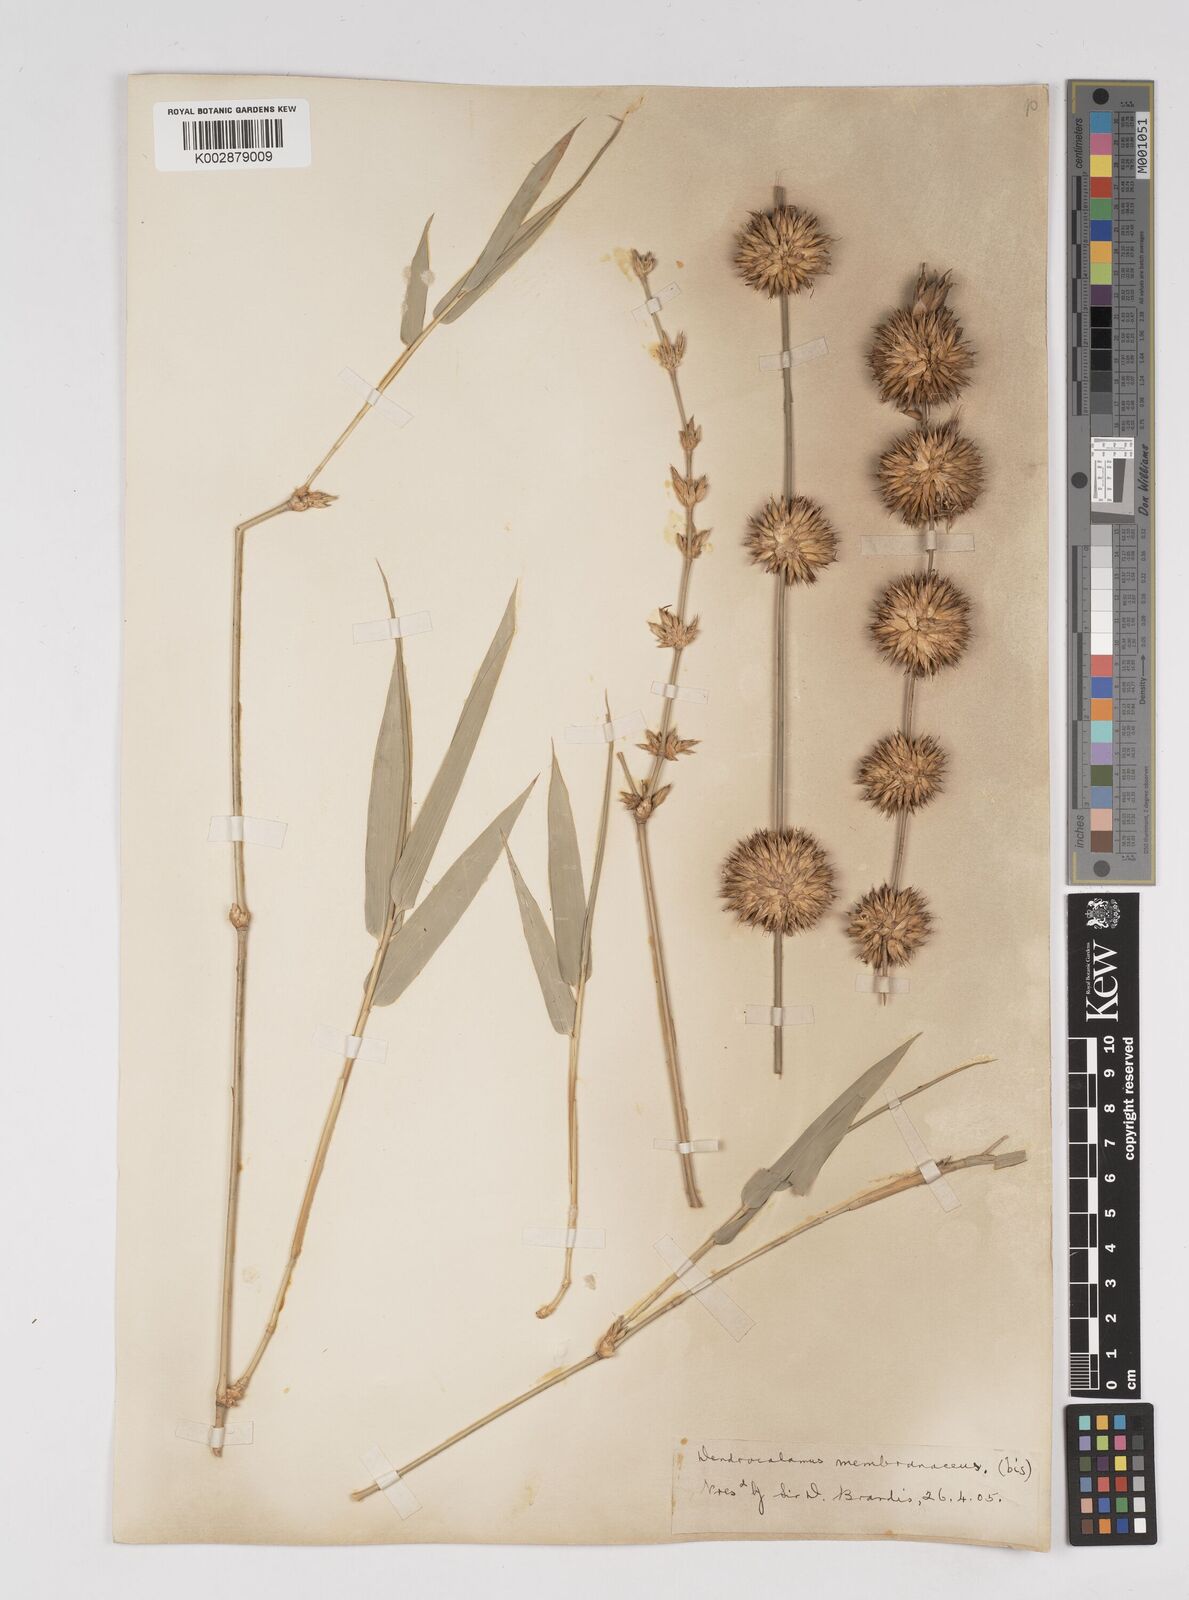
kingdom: Plantae
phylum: Tracheophyta
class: Liliopsida
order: Poales
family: Poaceae
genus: Dendrocalamus
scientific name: Dendrocalamus membranaceus
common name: White bamboo
